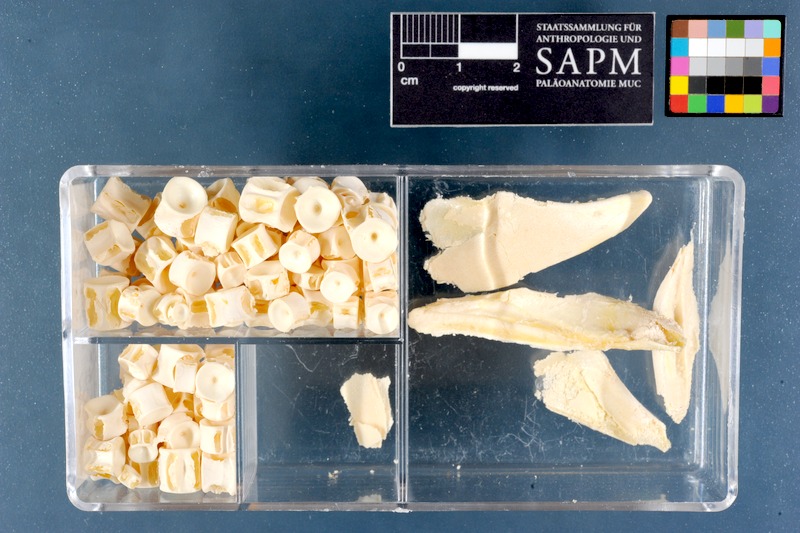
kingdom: Animalia
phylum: Chordata
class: Elasmobranchii
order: Carcharhiniformes
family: Triakidae
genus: Mustelus
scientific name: Mustelus mustelus
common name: Smooth-hound
